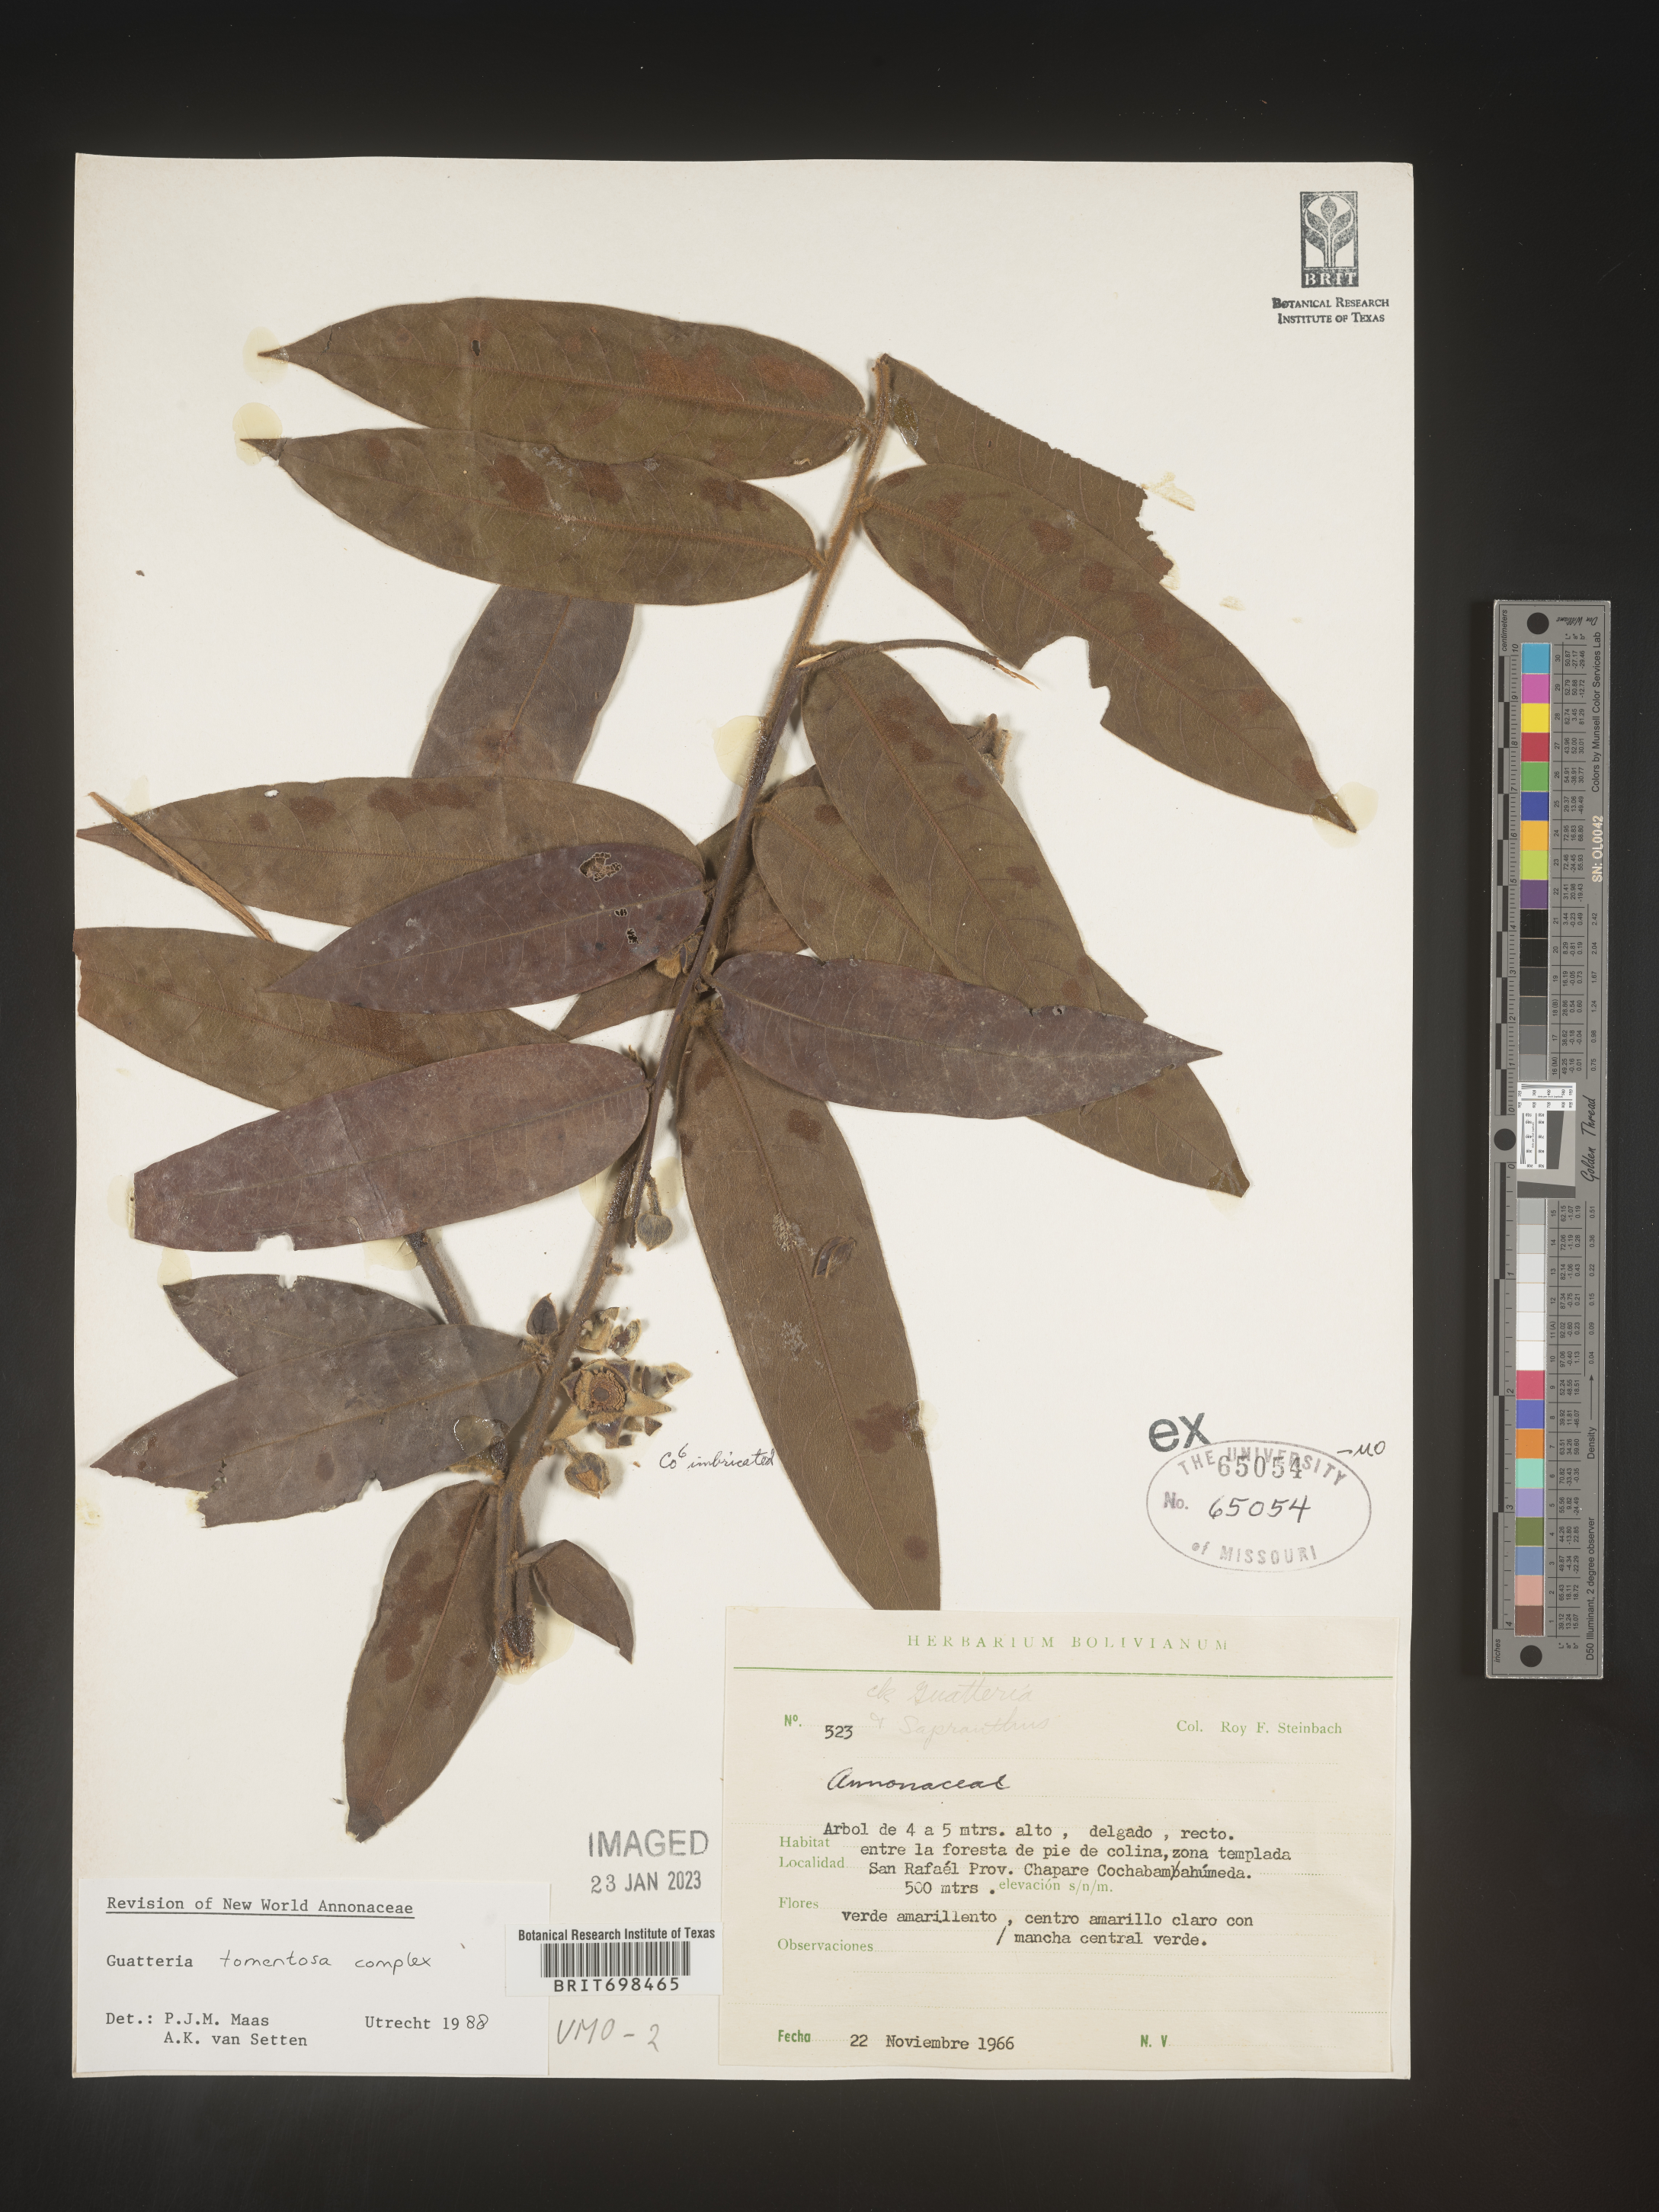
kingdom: Plantae
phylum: Tracheophyta
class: Magnoliopsida
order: Magnoliales
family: Annonaceae
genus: Guatteria
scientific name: Guatteria tomentosa
